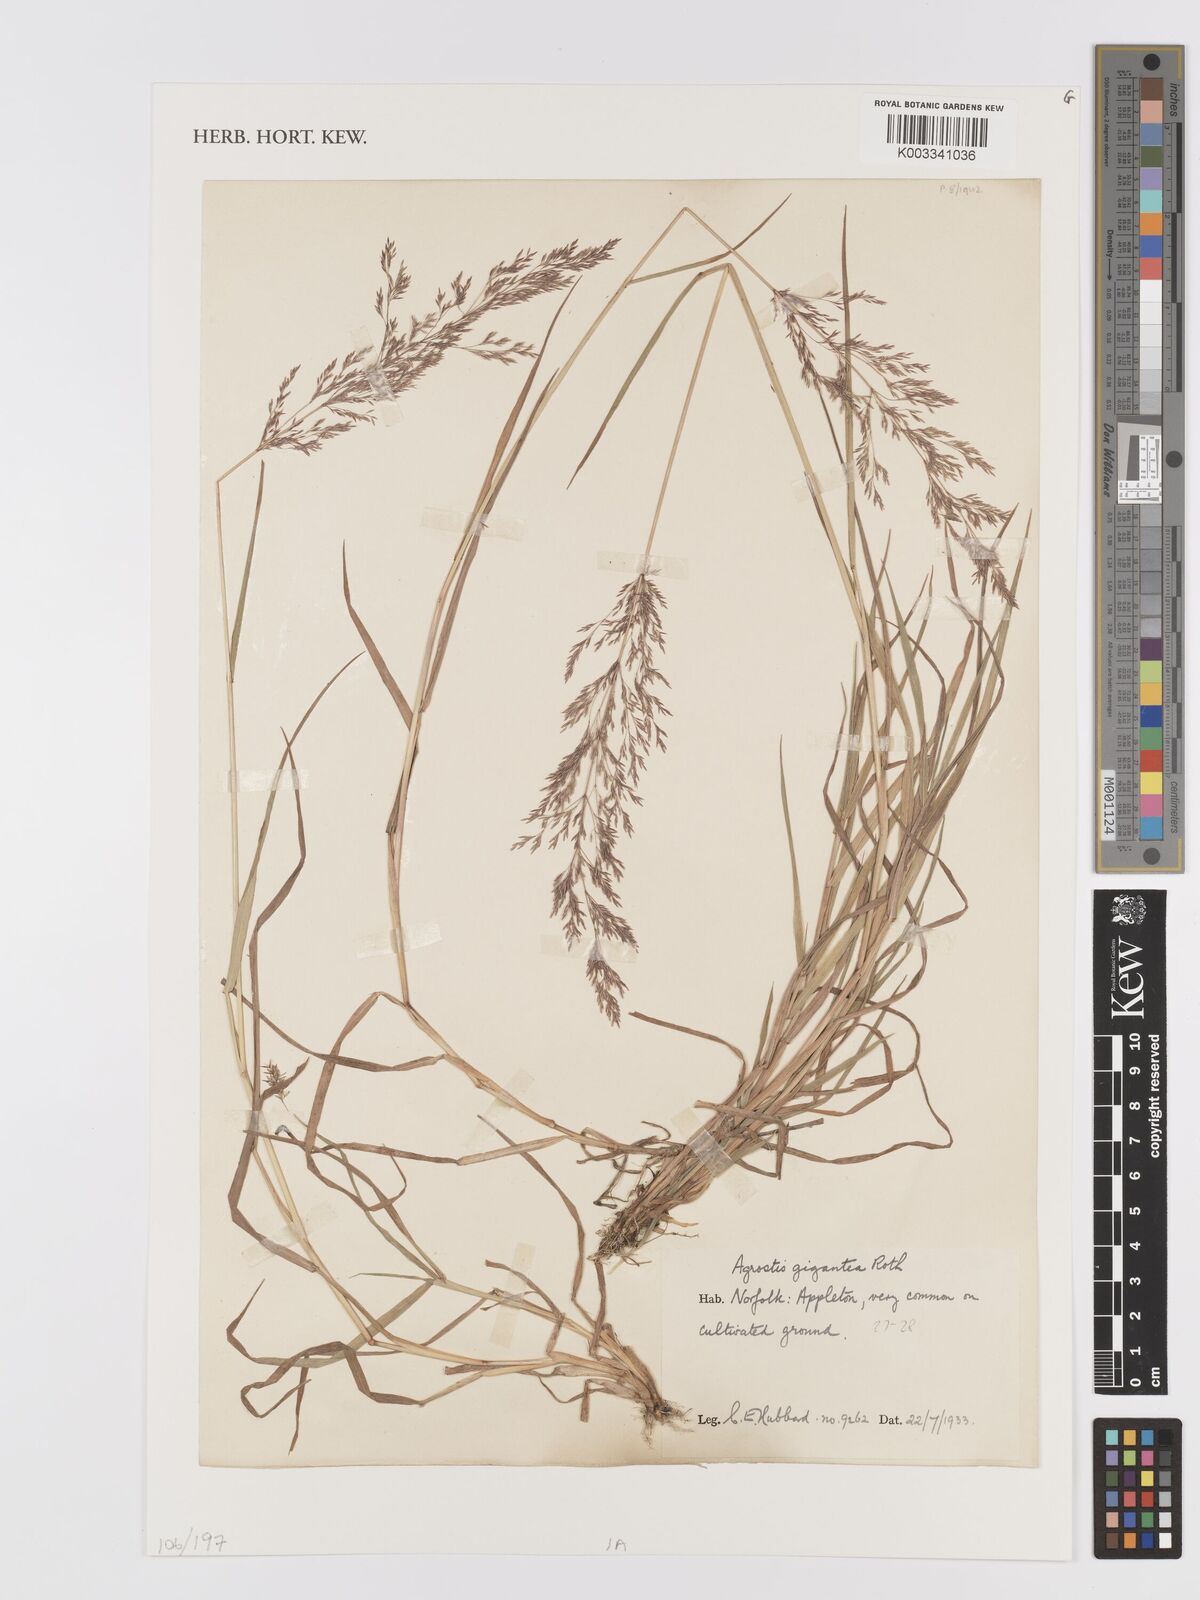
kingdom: Plantae
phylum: Tracheophyta
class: Liliopsida
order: Poales
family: Poaceae
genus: Agrostis
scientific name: Agrostis gigantea
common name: Black bent
